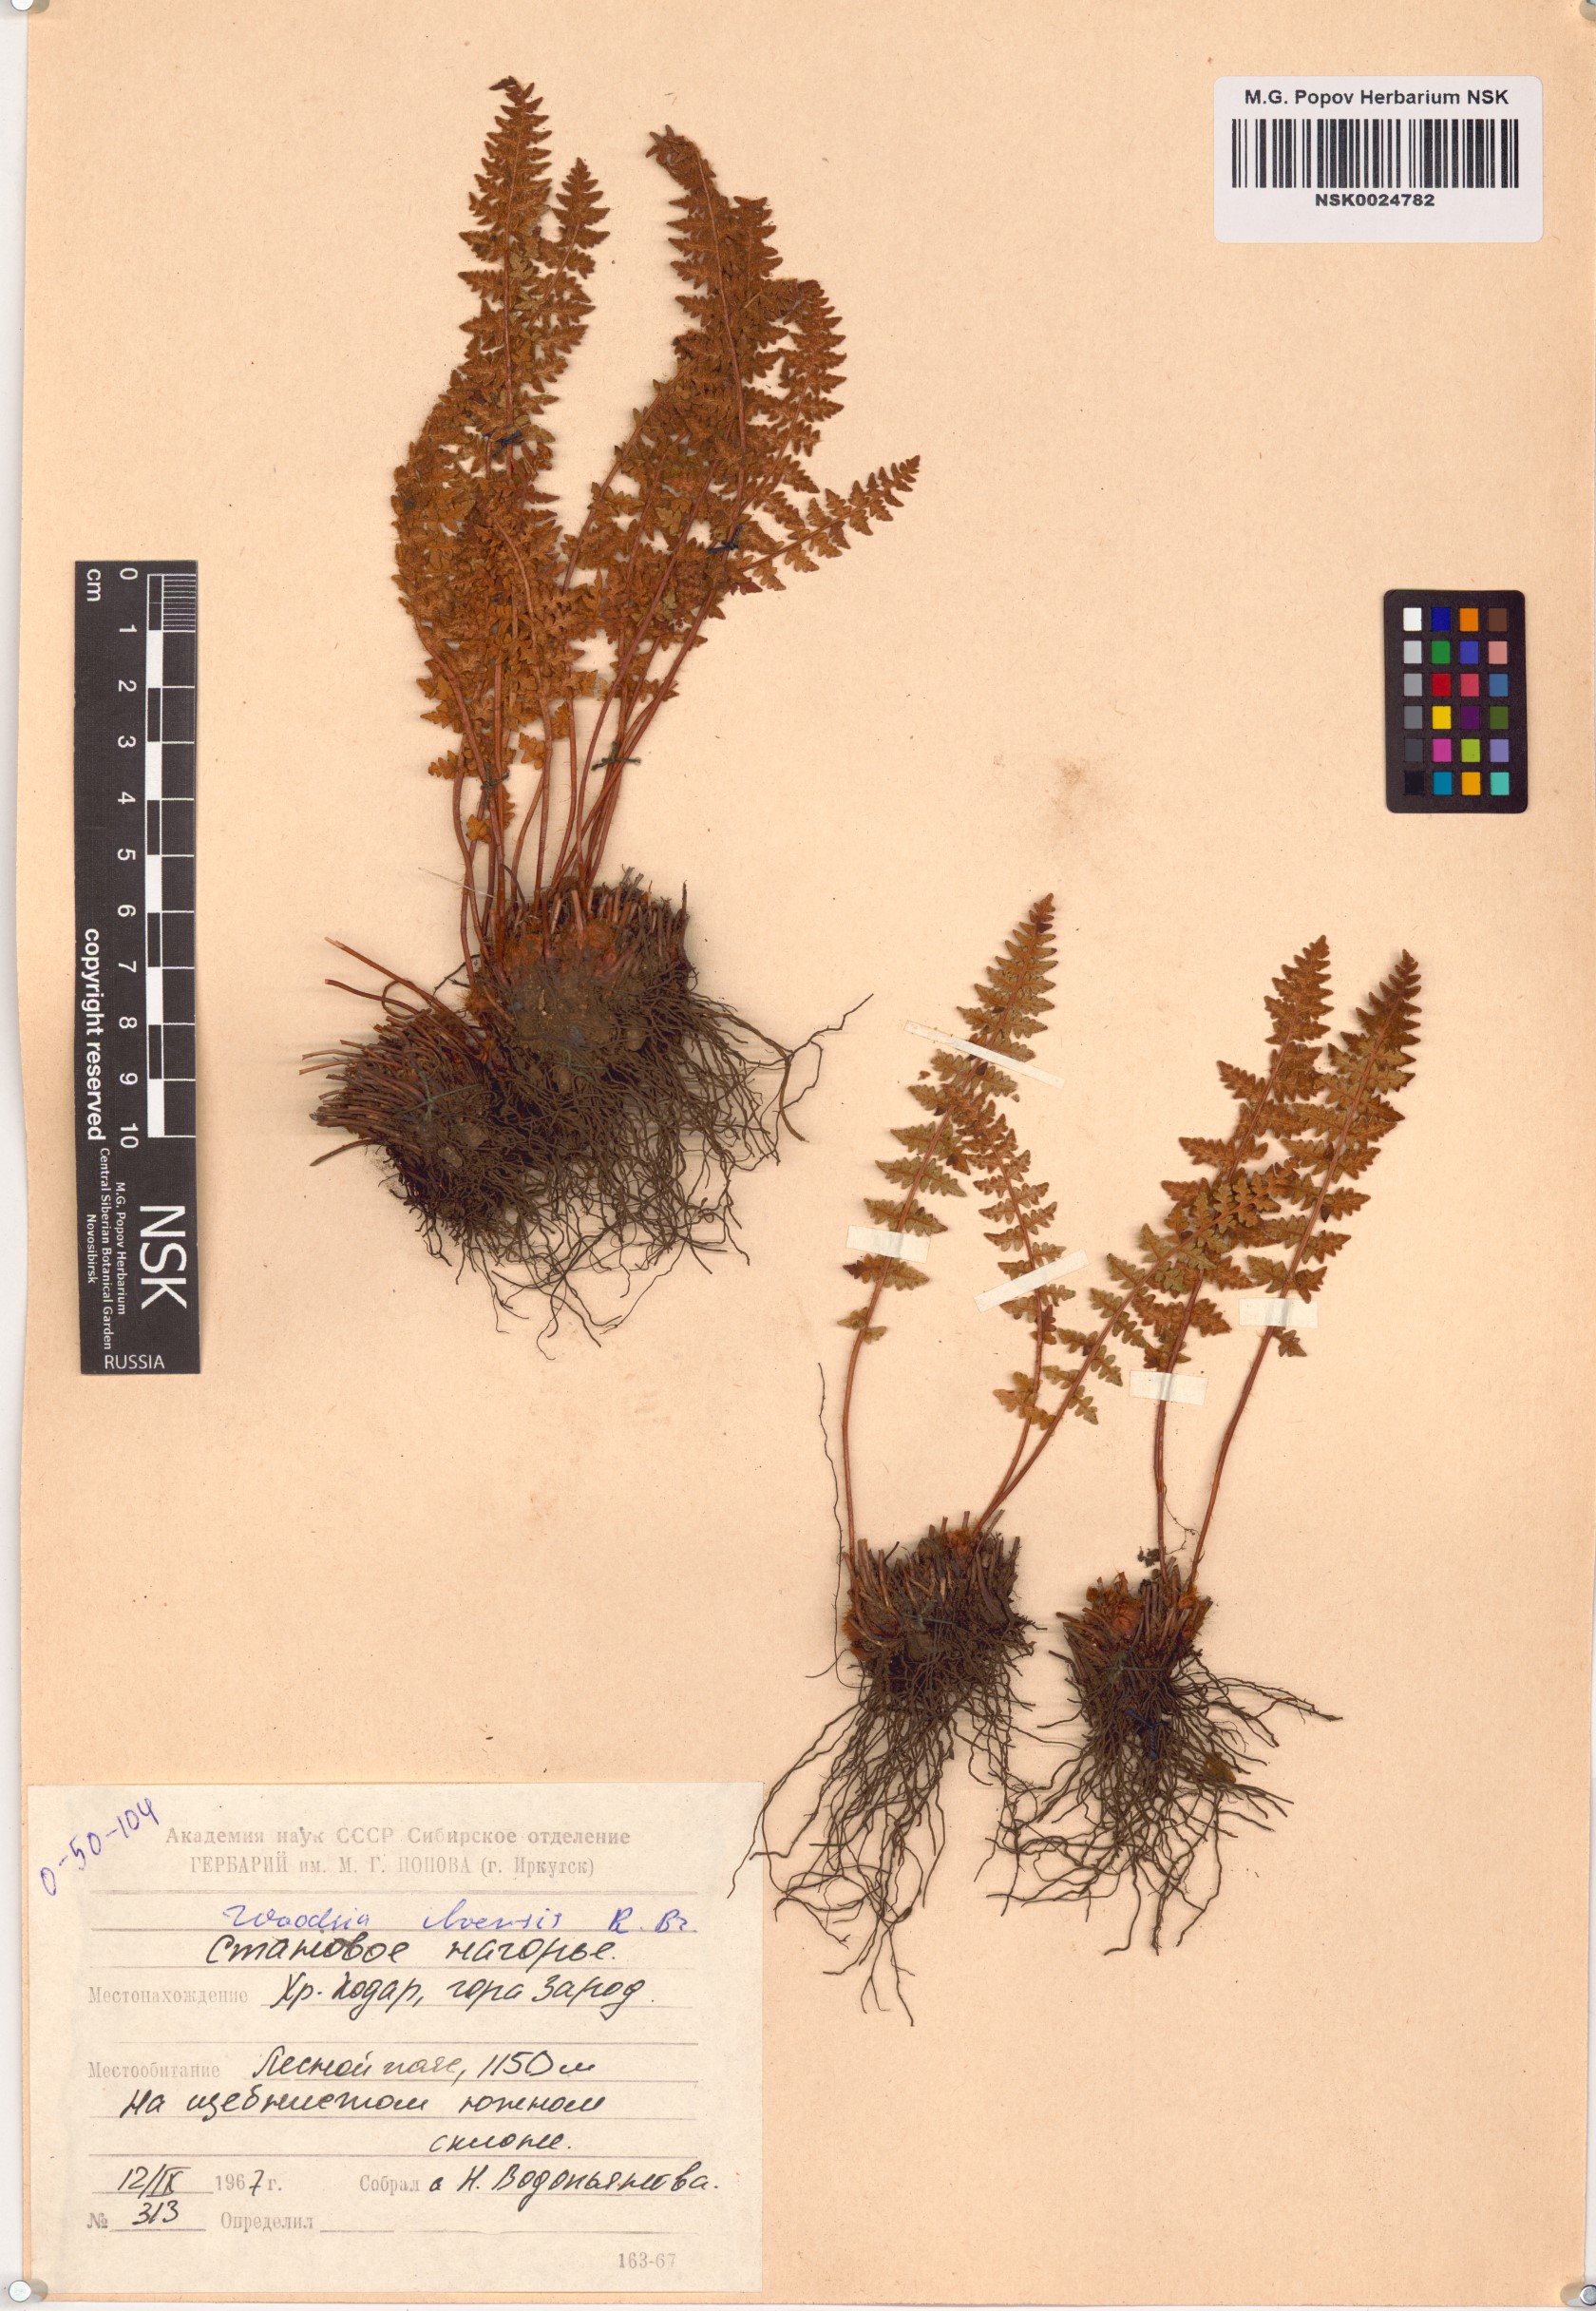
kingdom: Plantae
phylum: Tracheophyta
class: Polypodiopsida
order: Polypodiales
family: Woodsiaceae
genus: Woodsia
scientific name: Woodsia ilvensis
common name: Fragrant woodsia
